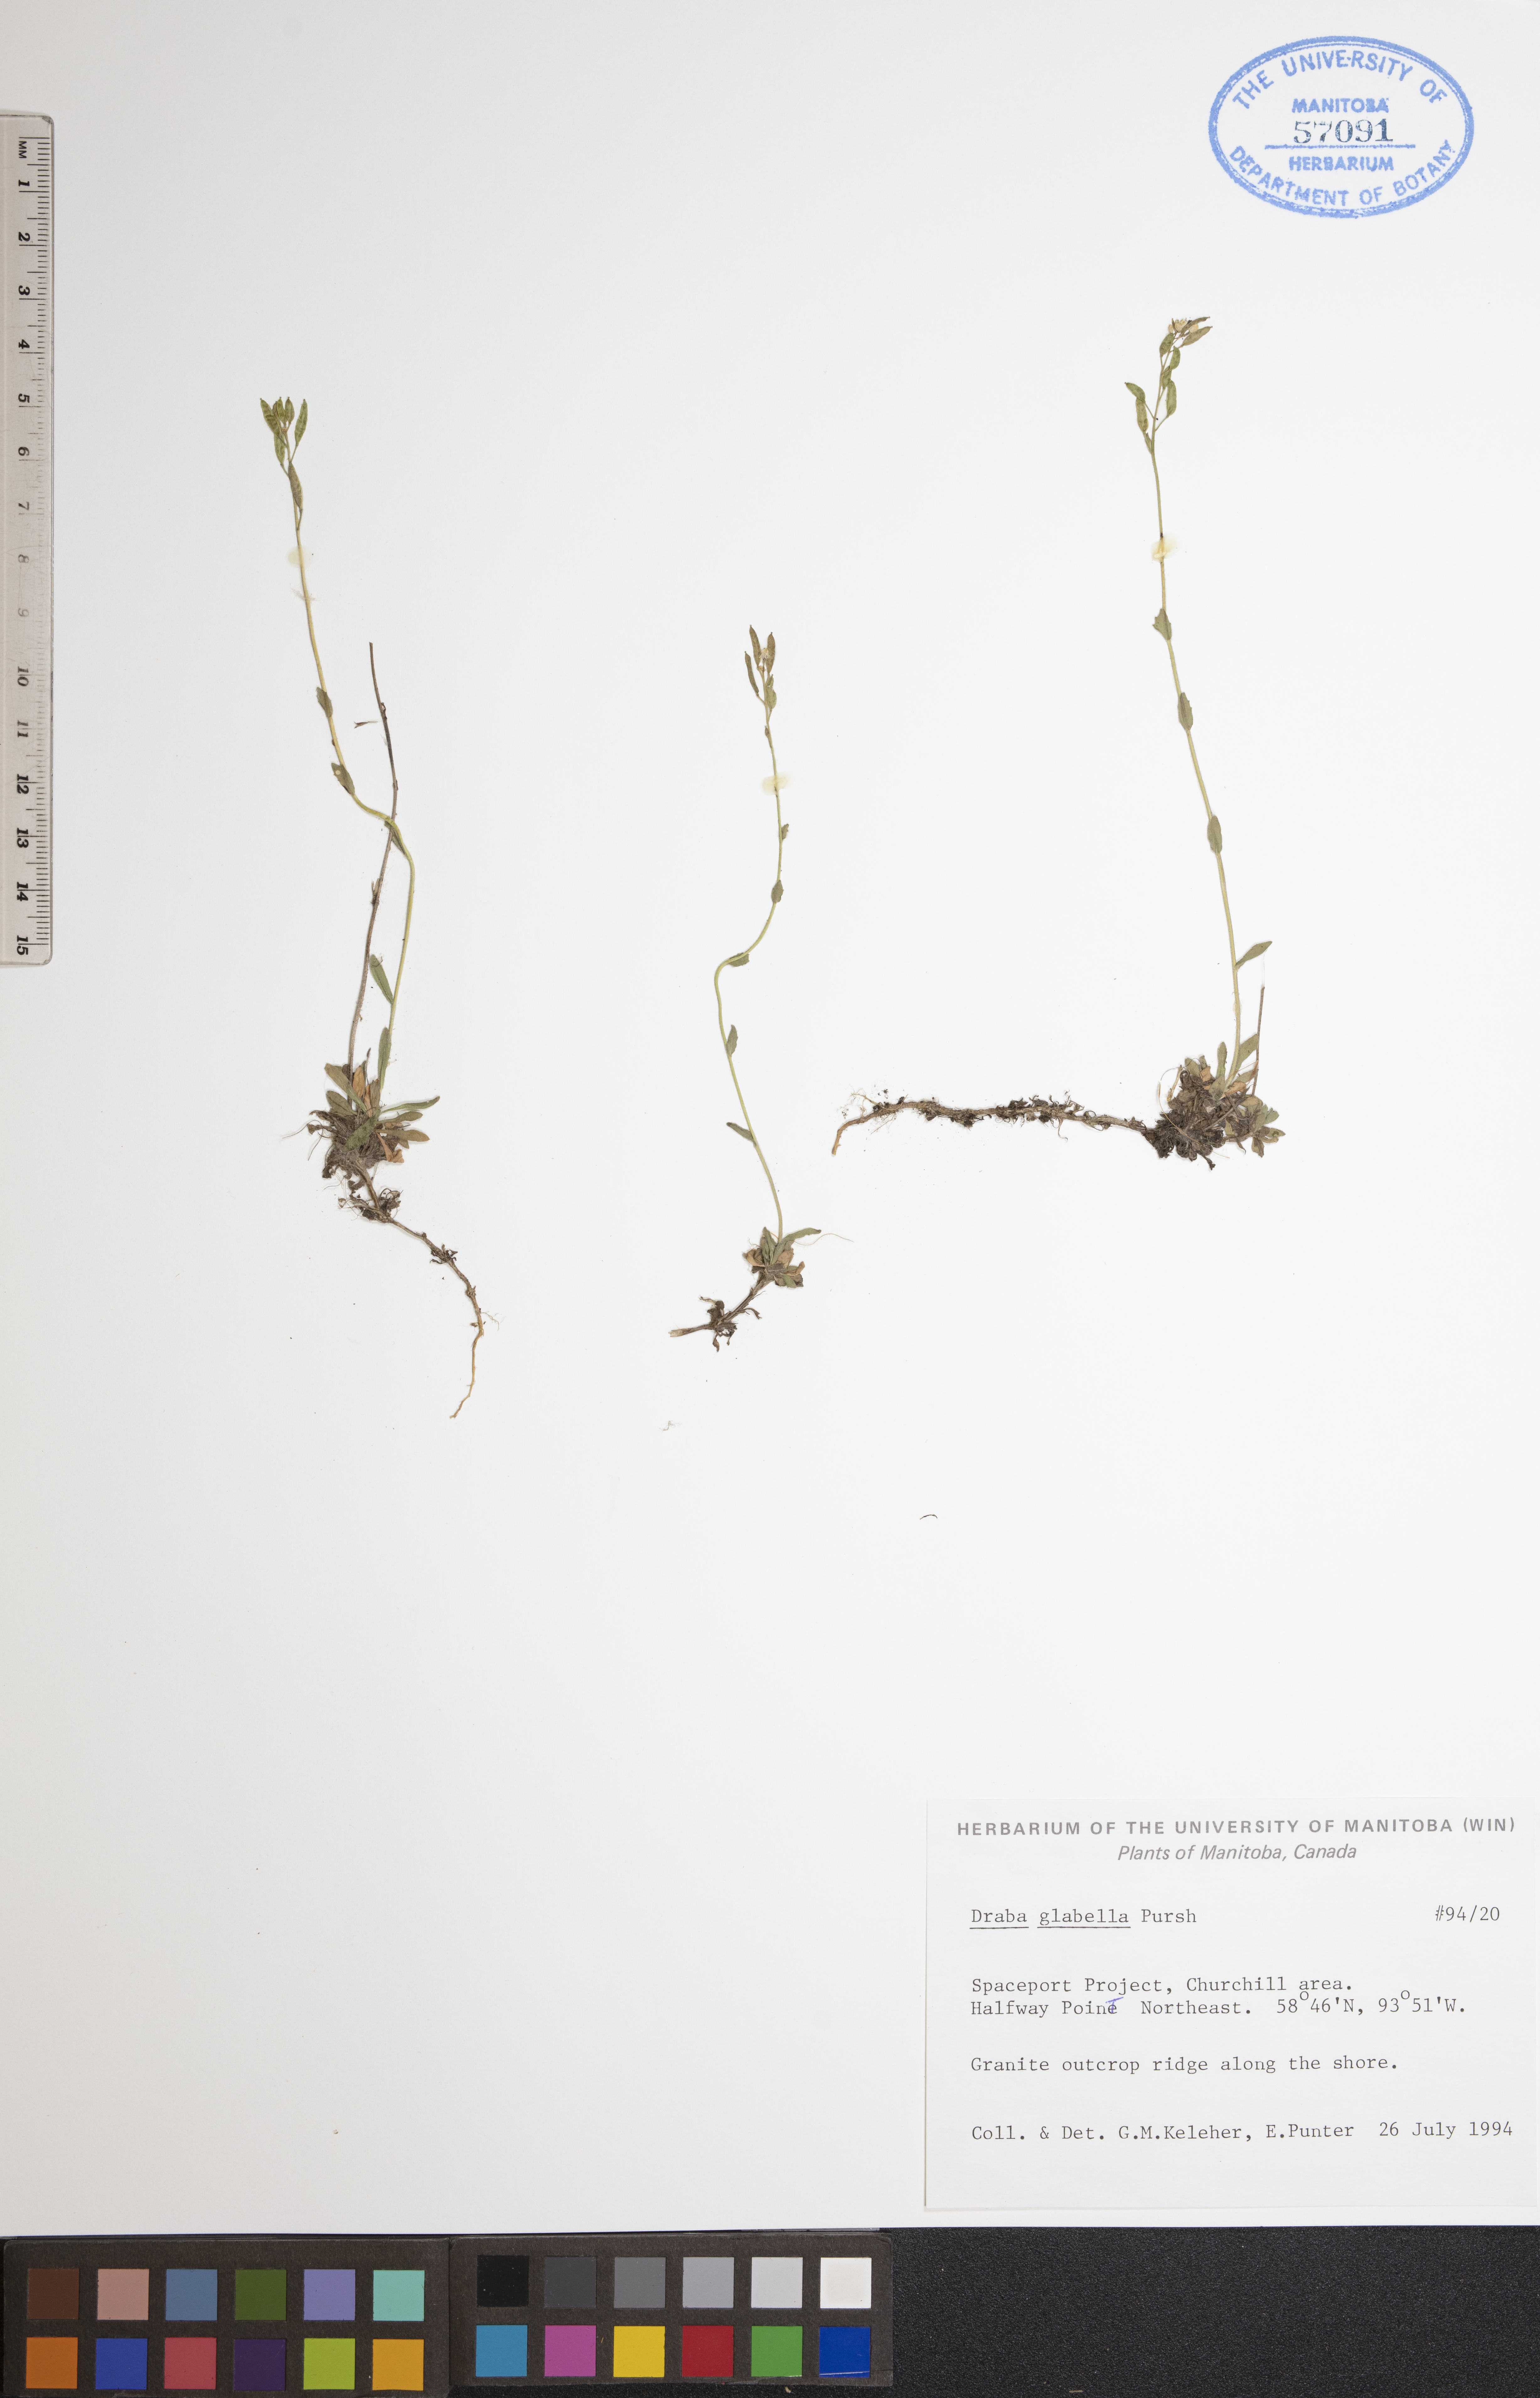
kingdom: Plantae
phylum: Tracheophyta
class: Magnoliopsida
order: Brassicales
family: Brassicaceae
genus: Draba
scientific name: Draba glabella
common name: Glaucous draba
